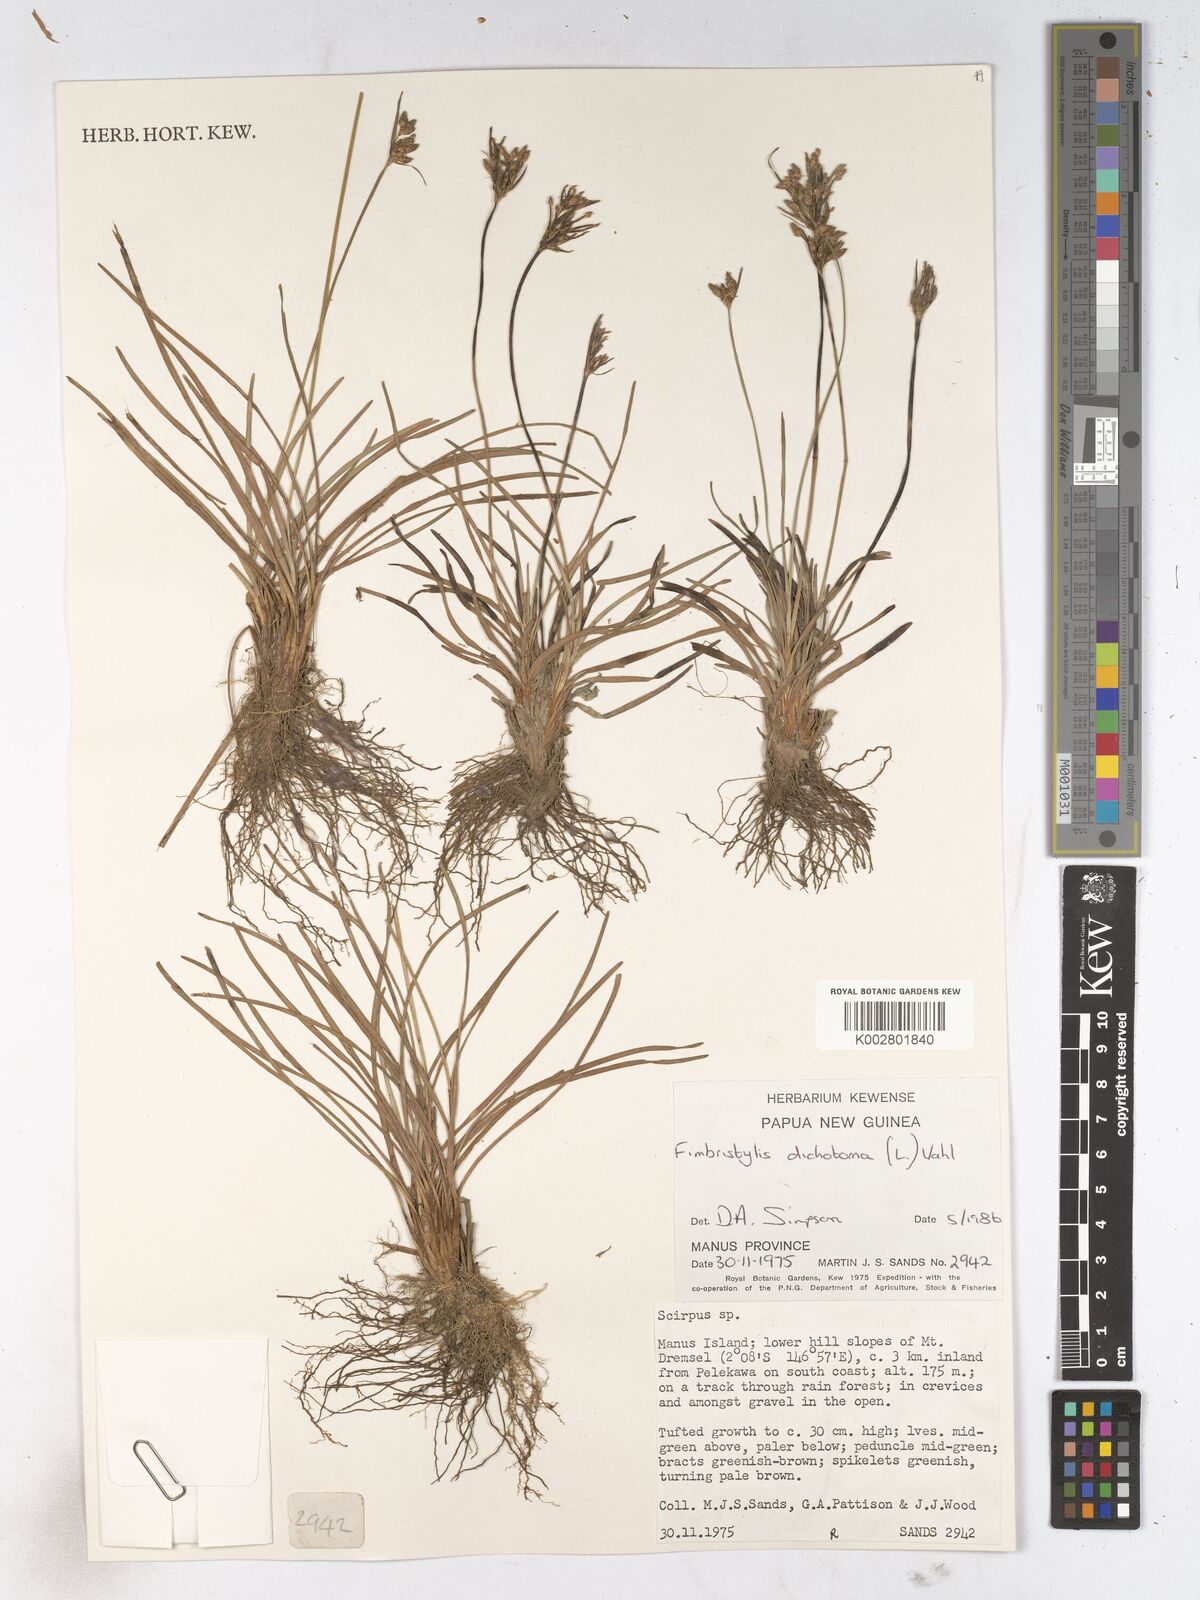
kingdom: Plantae
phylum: Tracheophyta
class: Liliopsida
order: Poales
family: Cyperaceae
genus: Fimbristylis
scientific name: Fimbristylis dichotoma
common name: Forked fimbry
